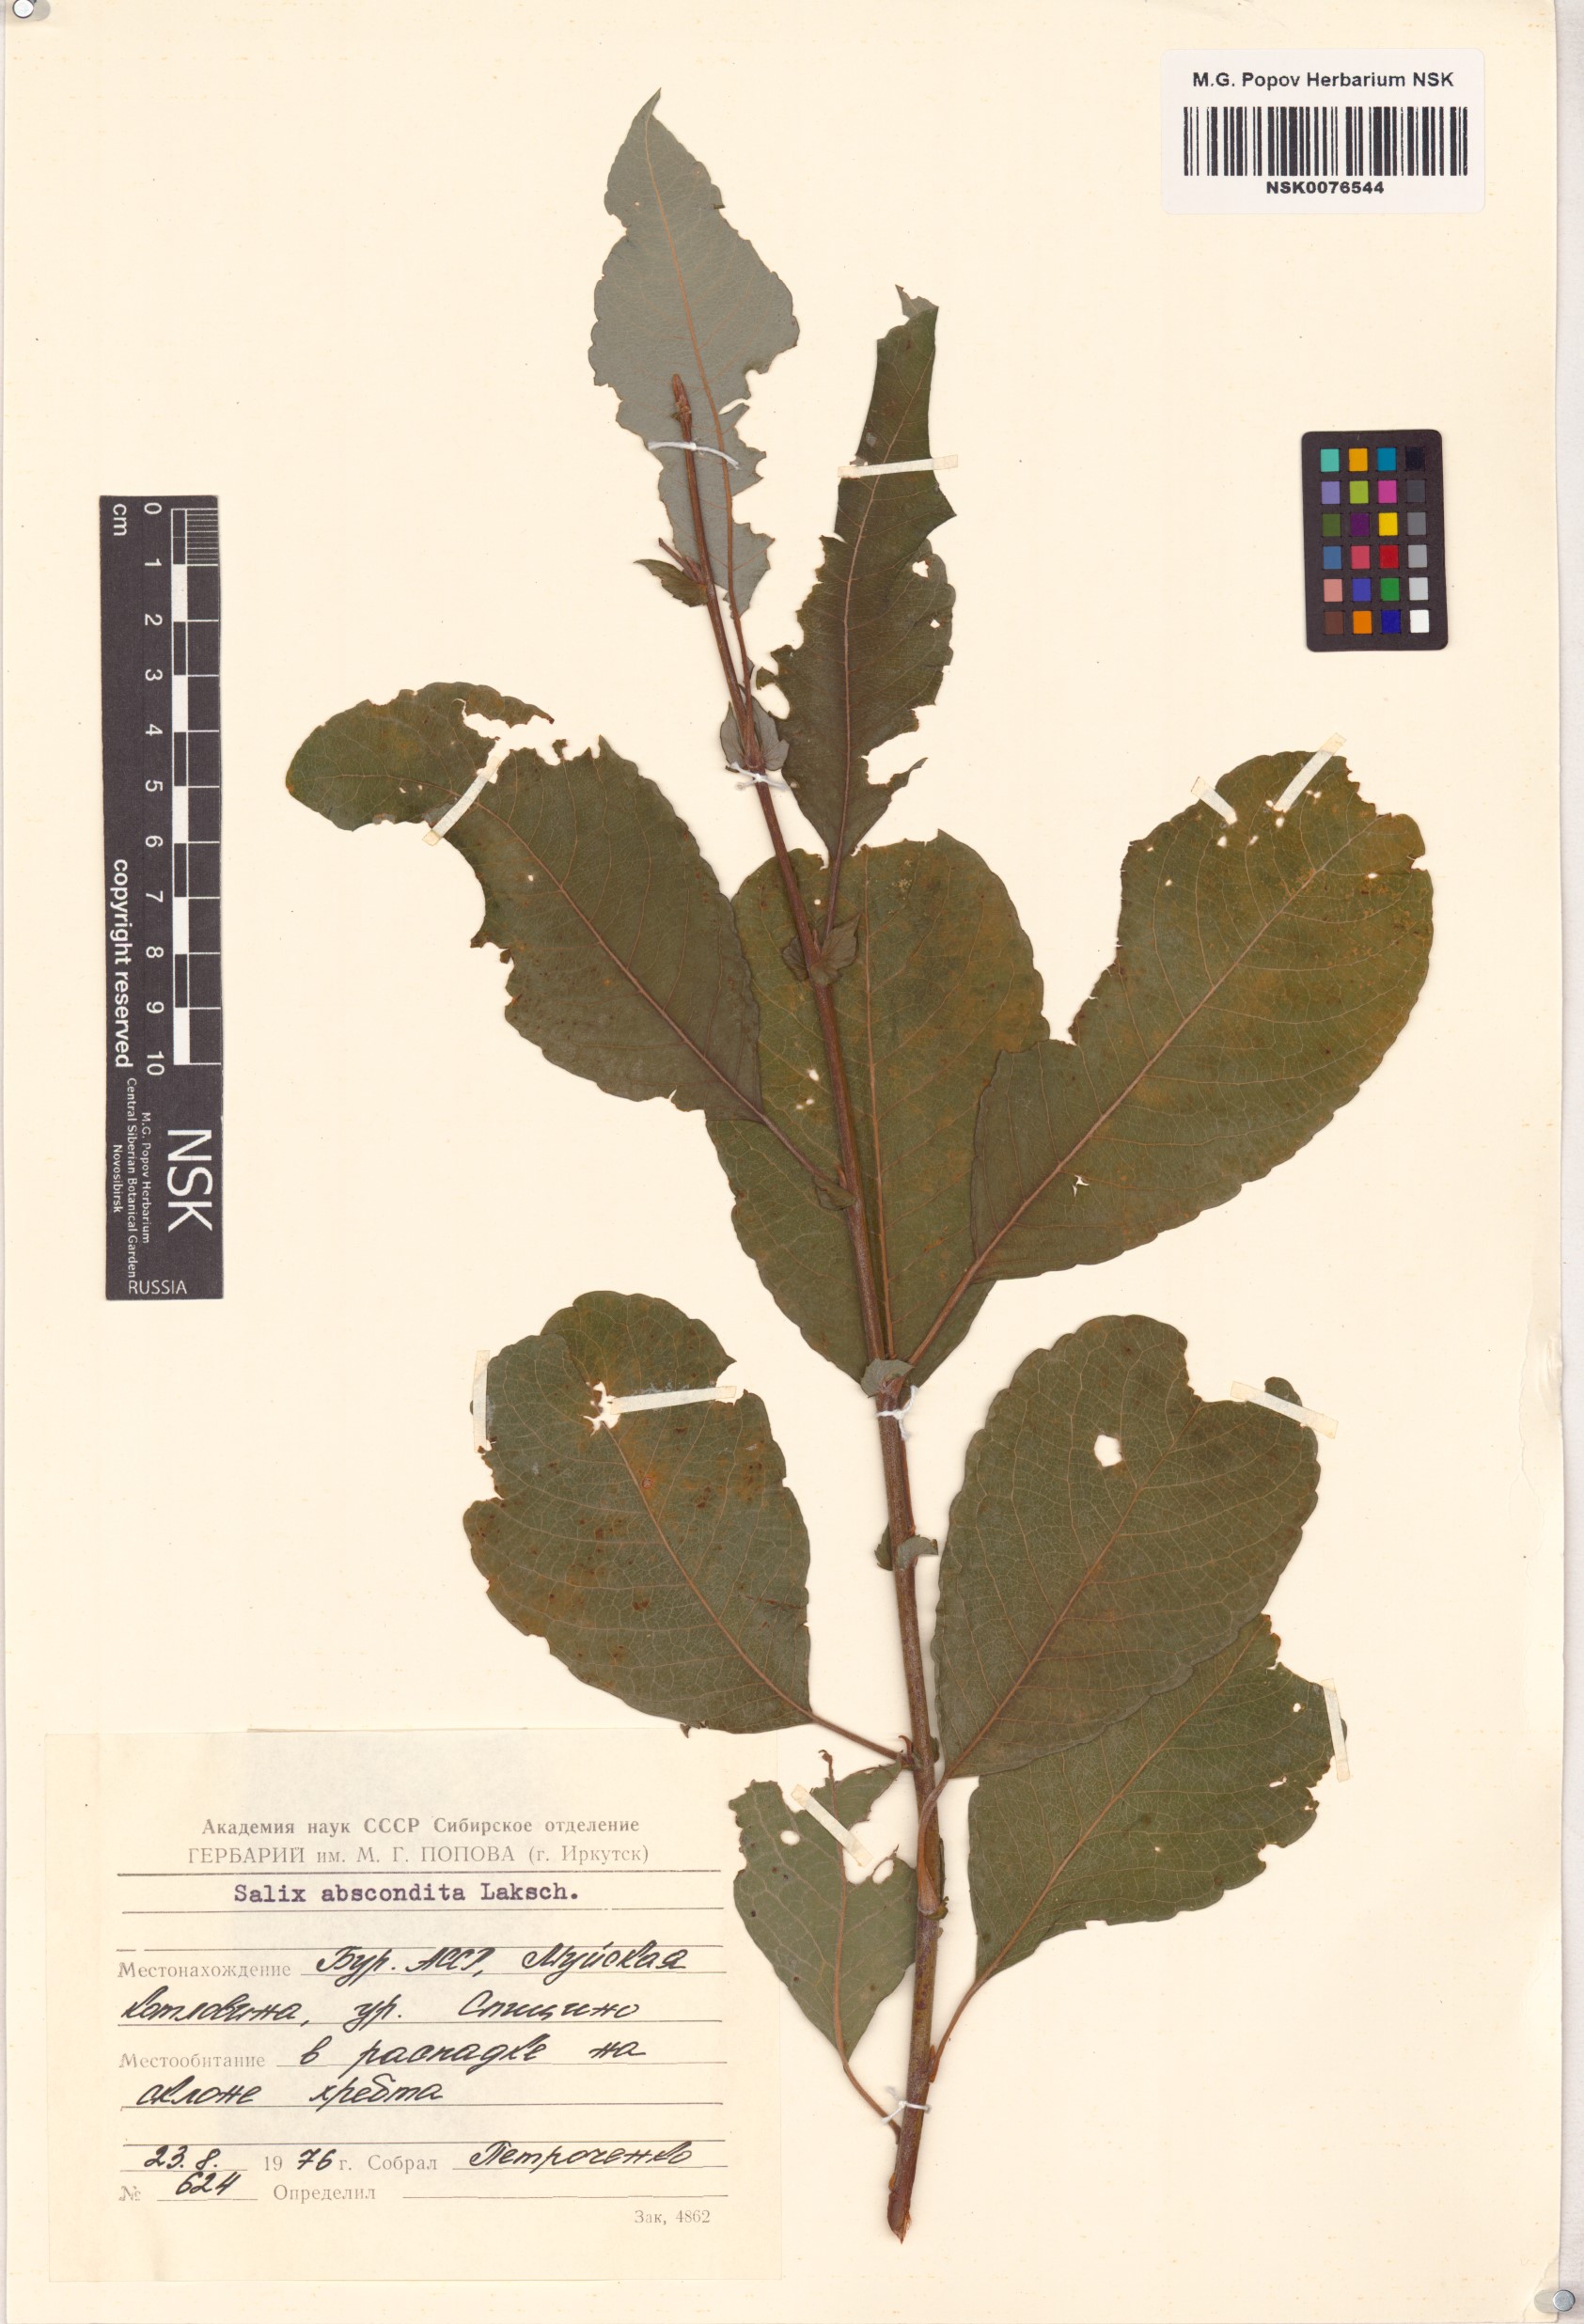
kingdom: Plantae
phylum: Tracheophyta
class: Magnoliopsida
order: Malpighiales
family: Salicaceae
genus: Salix
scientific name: Salix abscondita
